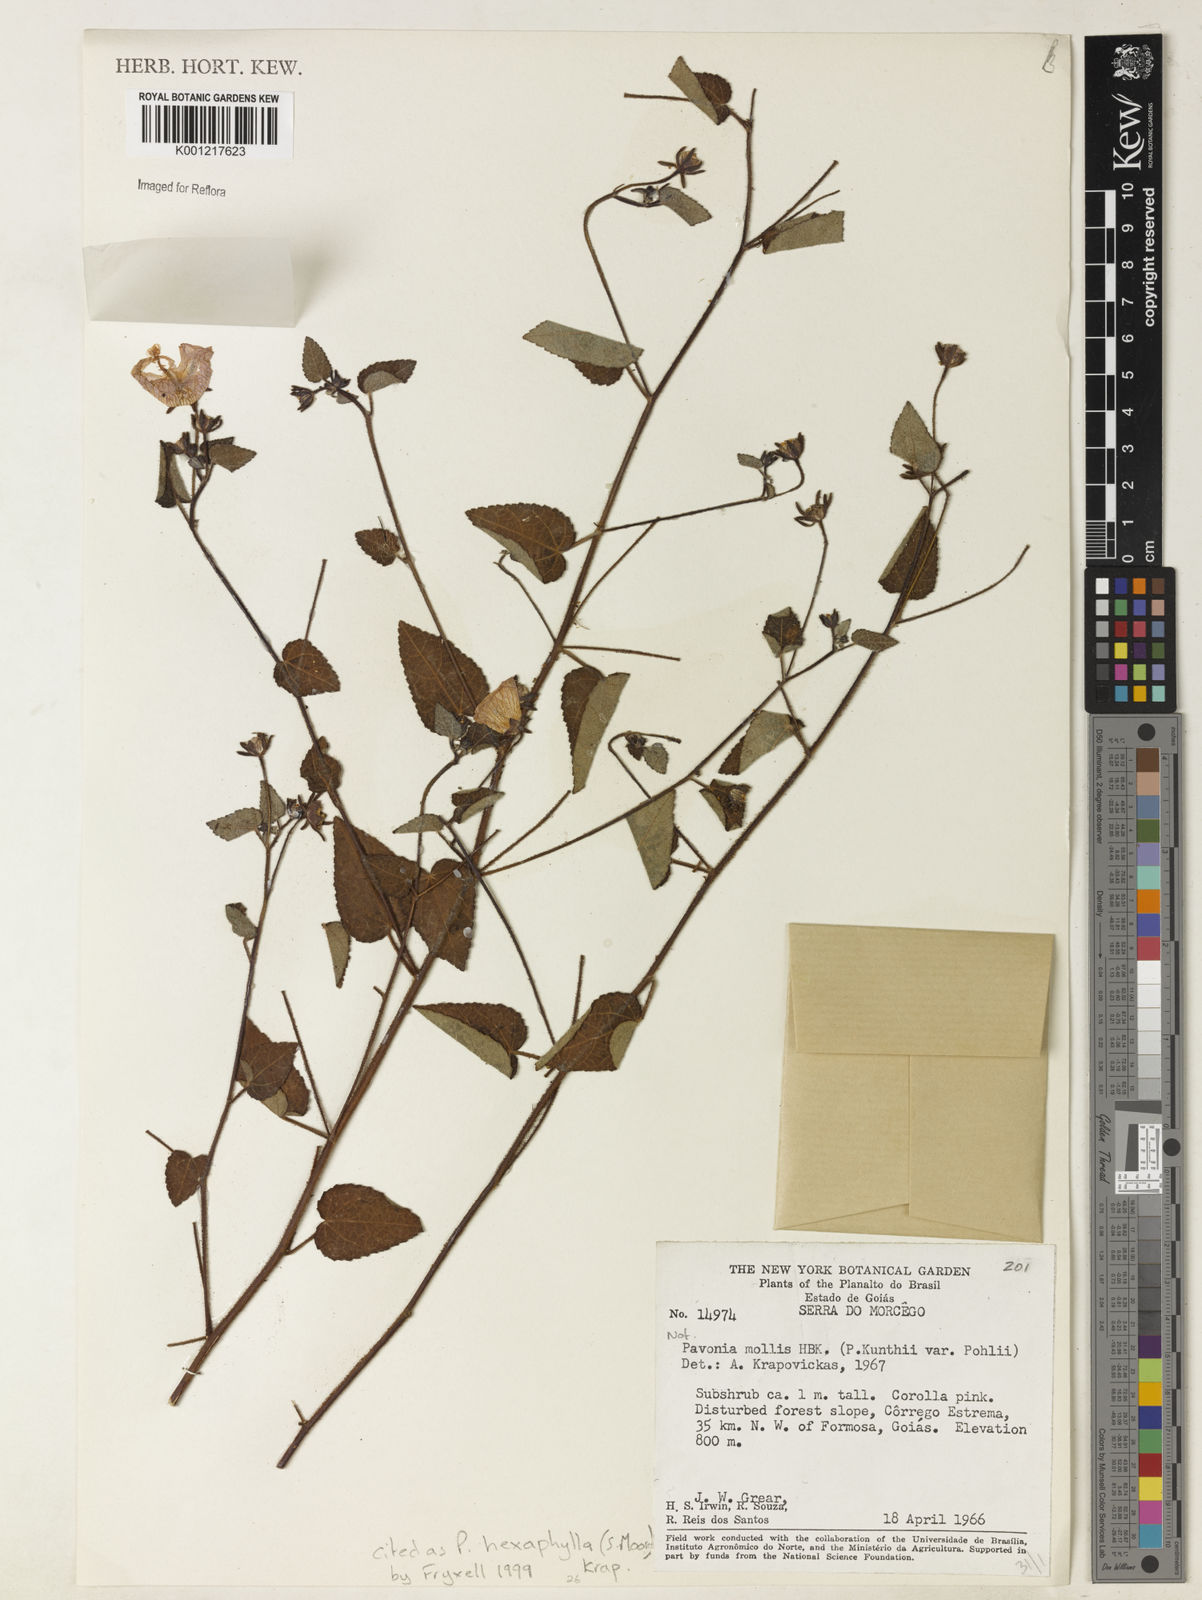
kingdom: Plantae
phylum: Tracheophyta
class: Magnoliopsida
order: Malvales
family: Malvaceae
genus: Pavonia
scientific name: Pavonia hexaphylla
